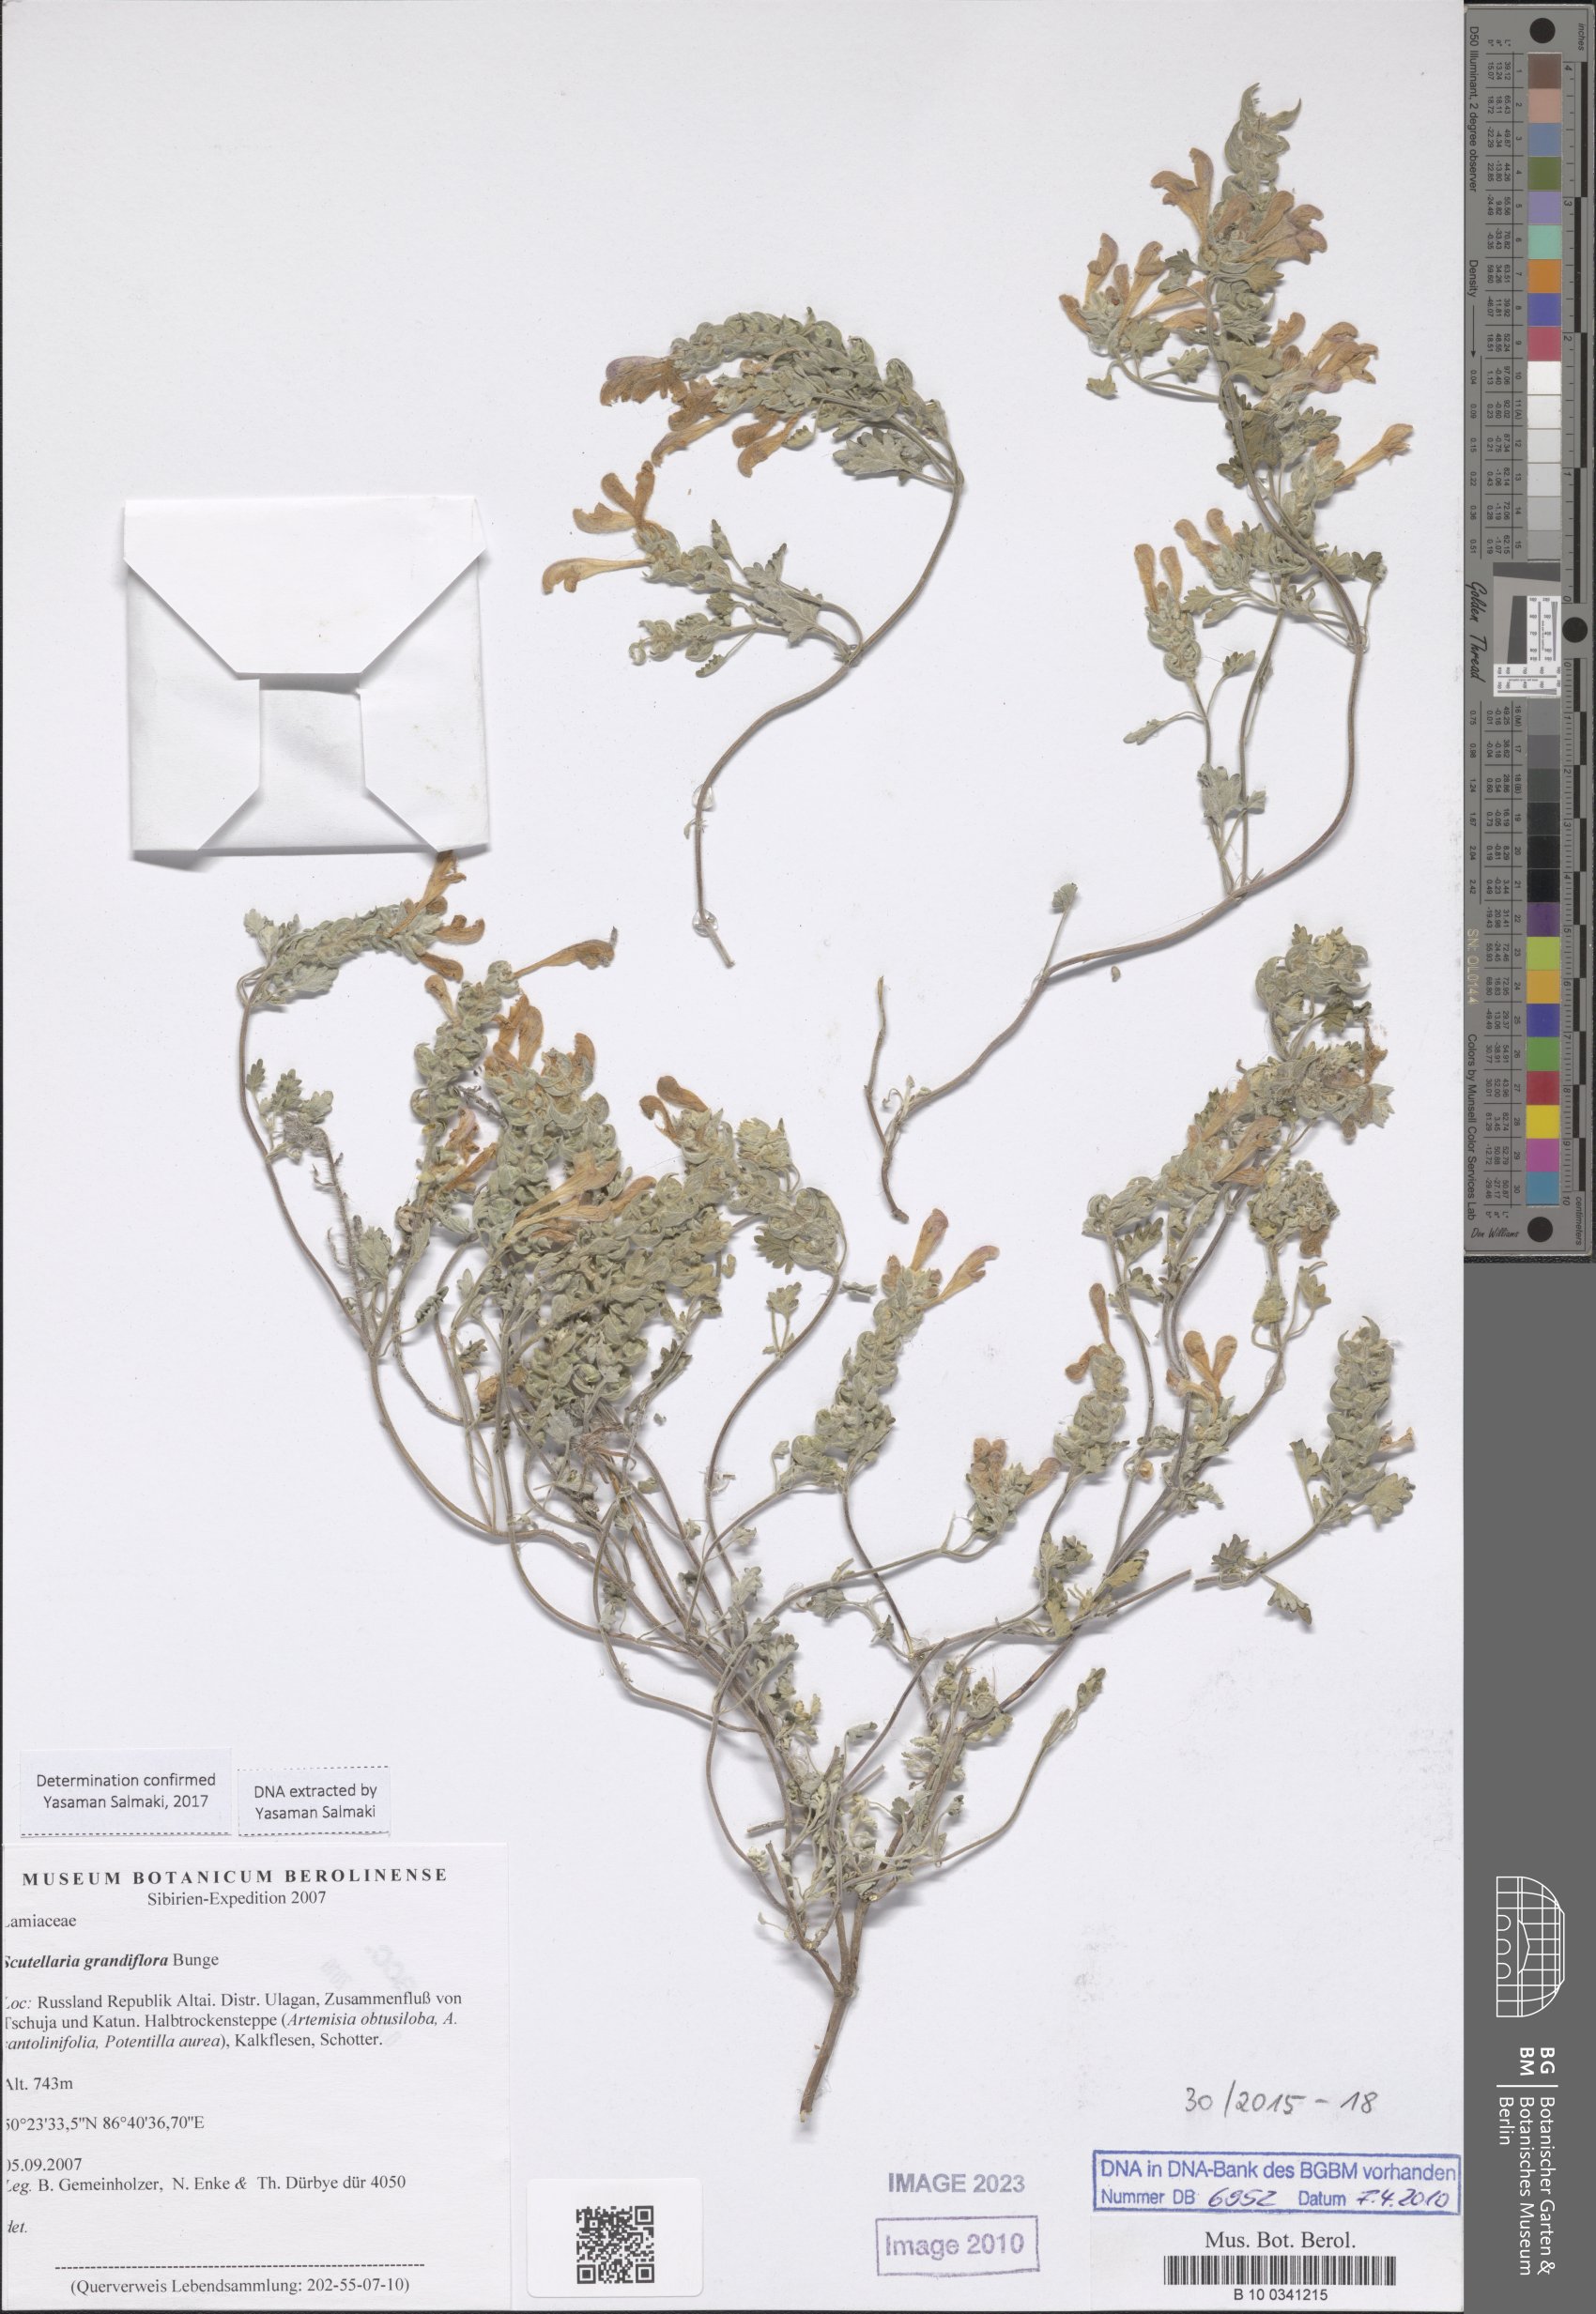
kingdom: Plantae
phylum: Tracheophyta
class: Magnoliopsida
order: Lamiales
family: Lamiaceae
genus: Scutellaria
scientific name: Scutellaria prostrata
